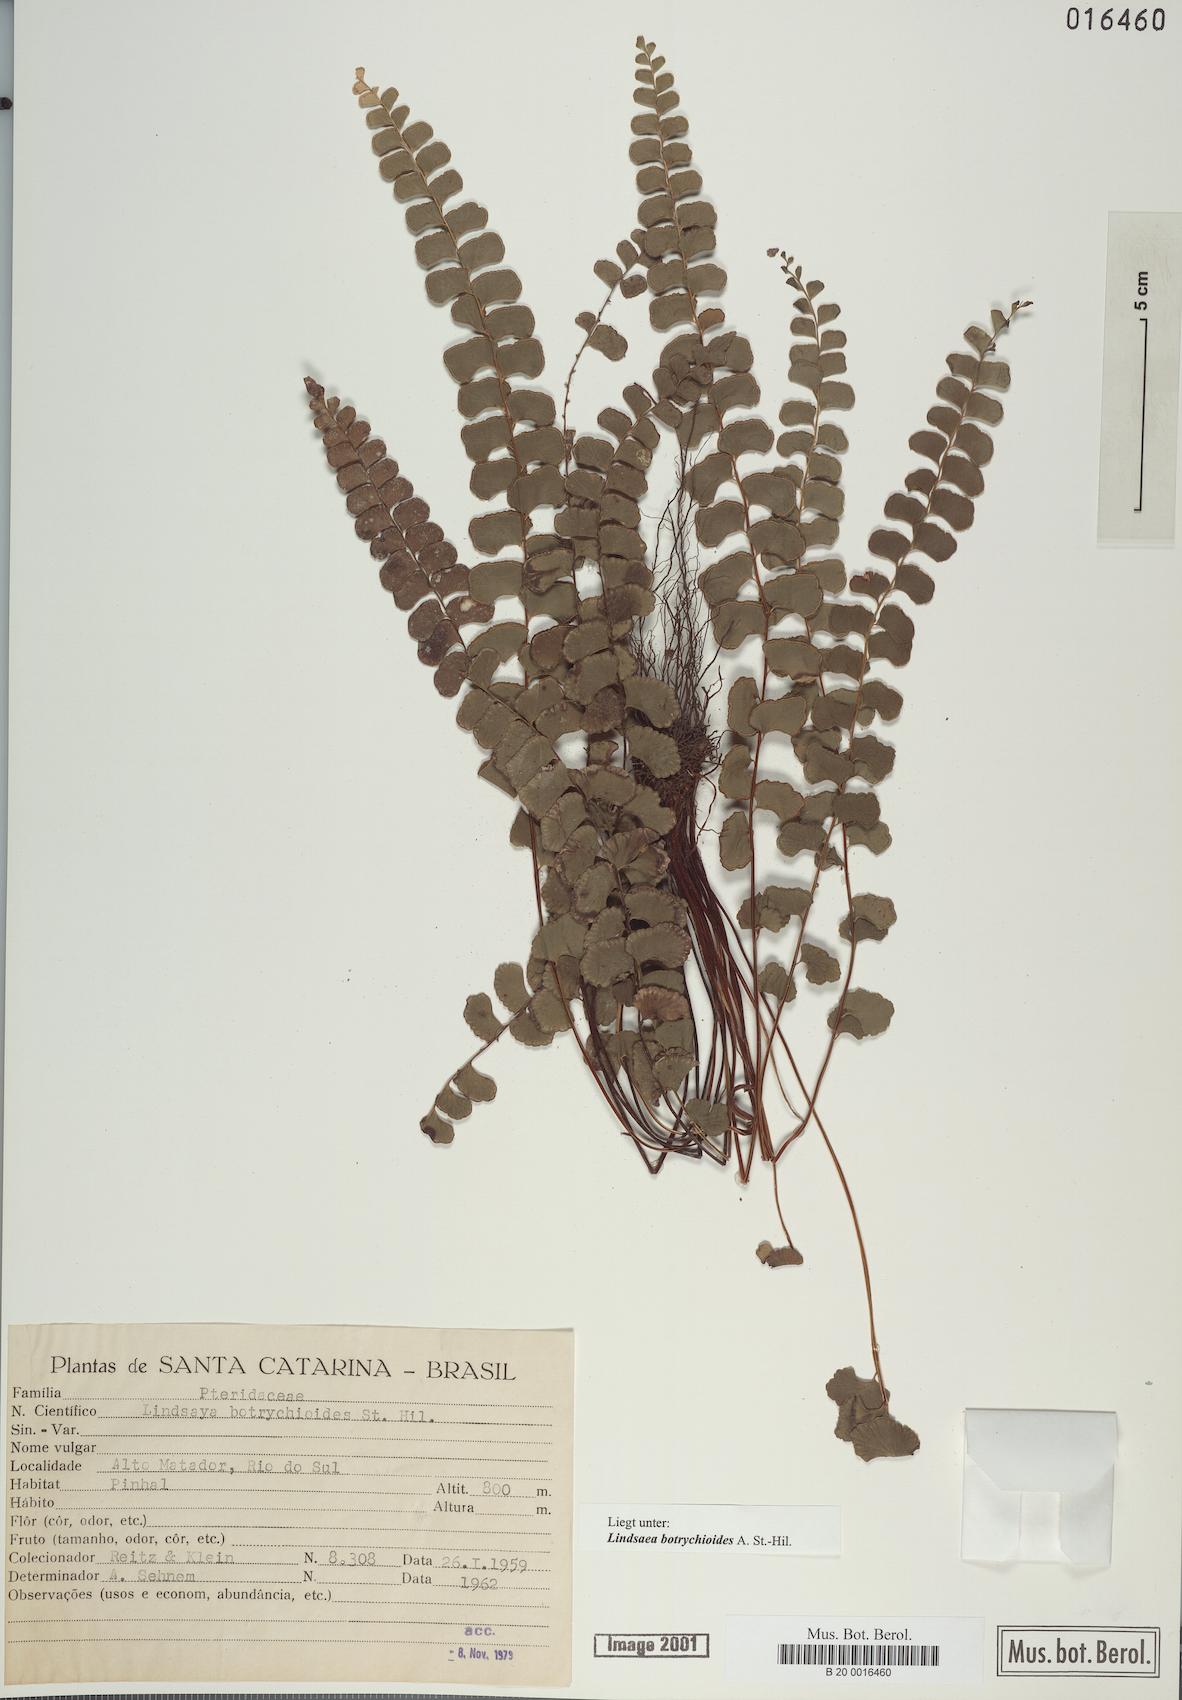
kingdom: Plantae
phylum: Tracheophyta
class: Polypodiopsida
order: Polypodiales
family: Lindsaeaceae
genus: Lindsaea
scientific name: Lindsaea botrychioides
